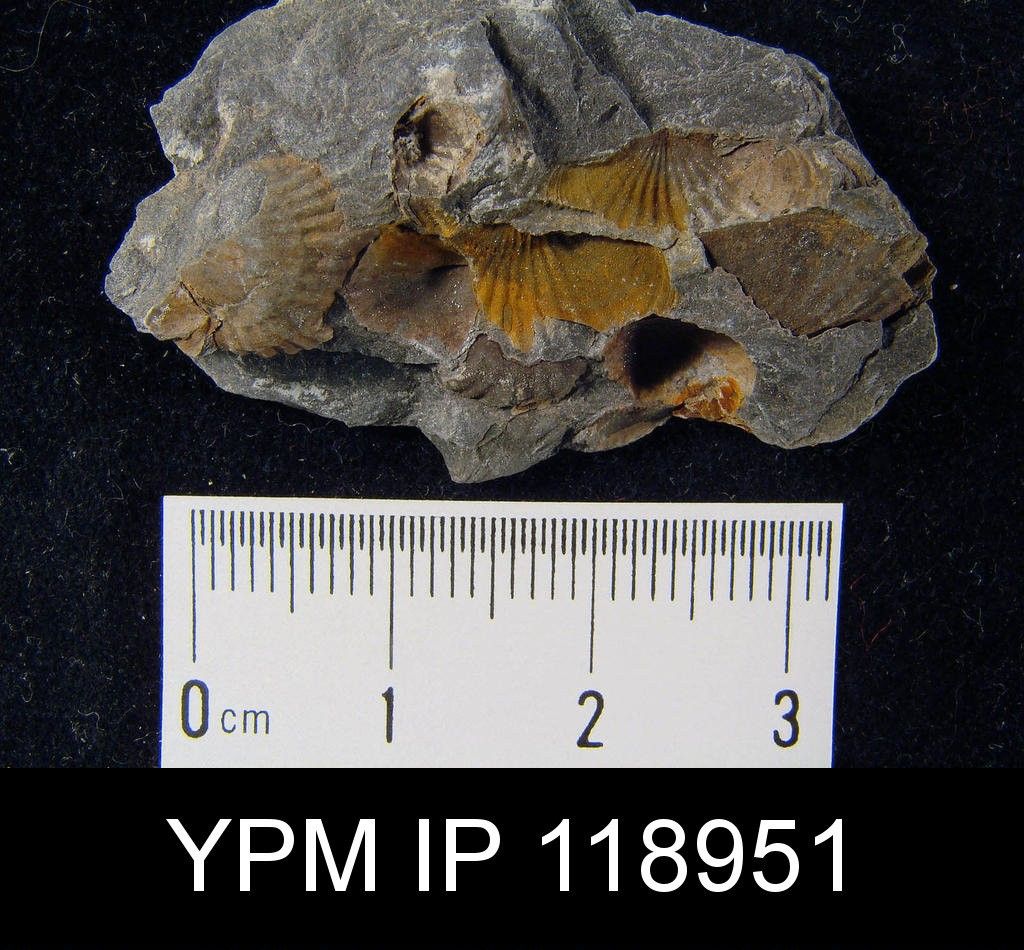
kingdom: Animalia
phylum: Brachiopoda
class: Rhynchonellata
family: Anoplothecidae
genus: Anoplotheca
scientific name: Anoplotheca
